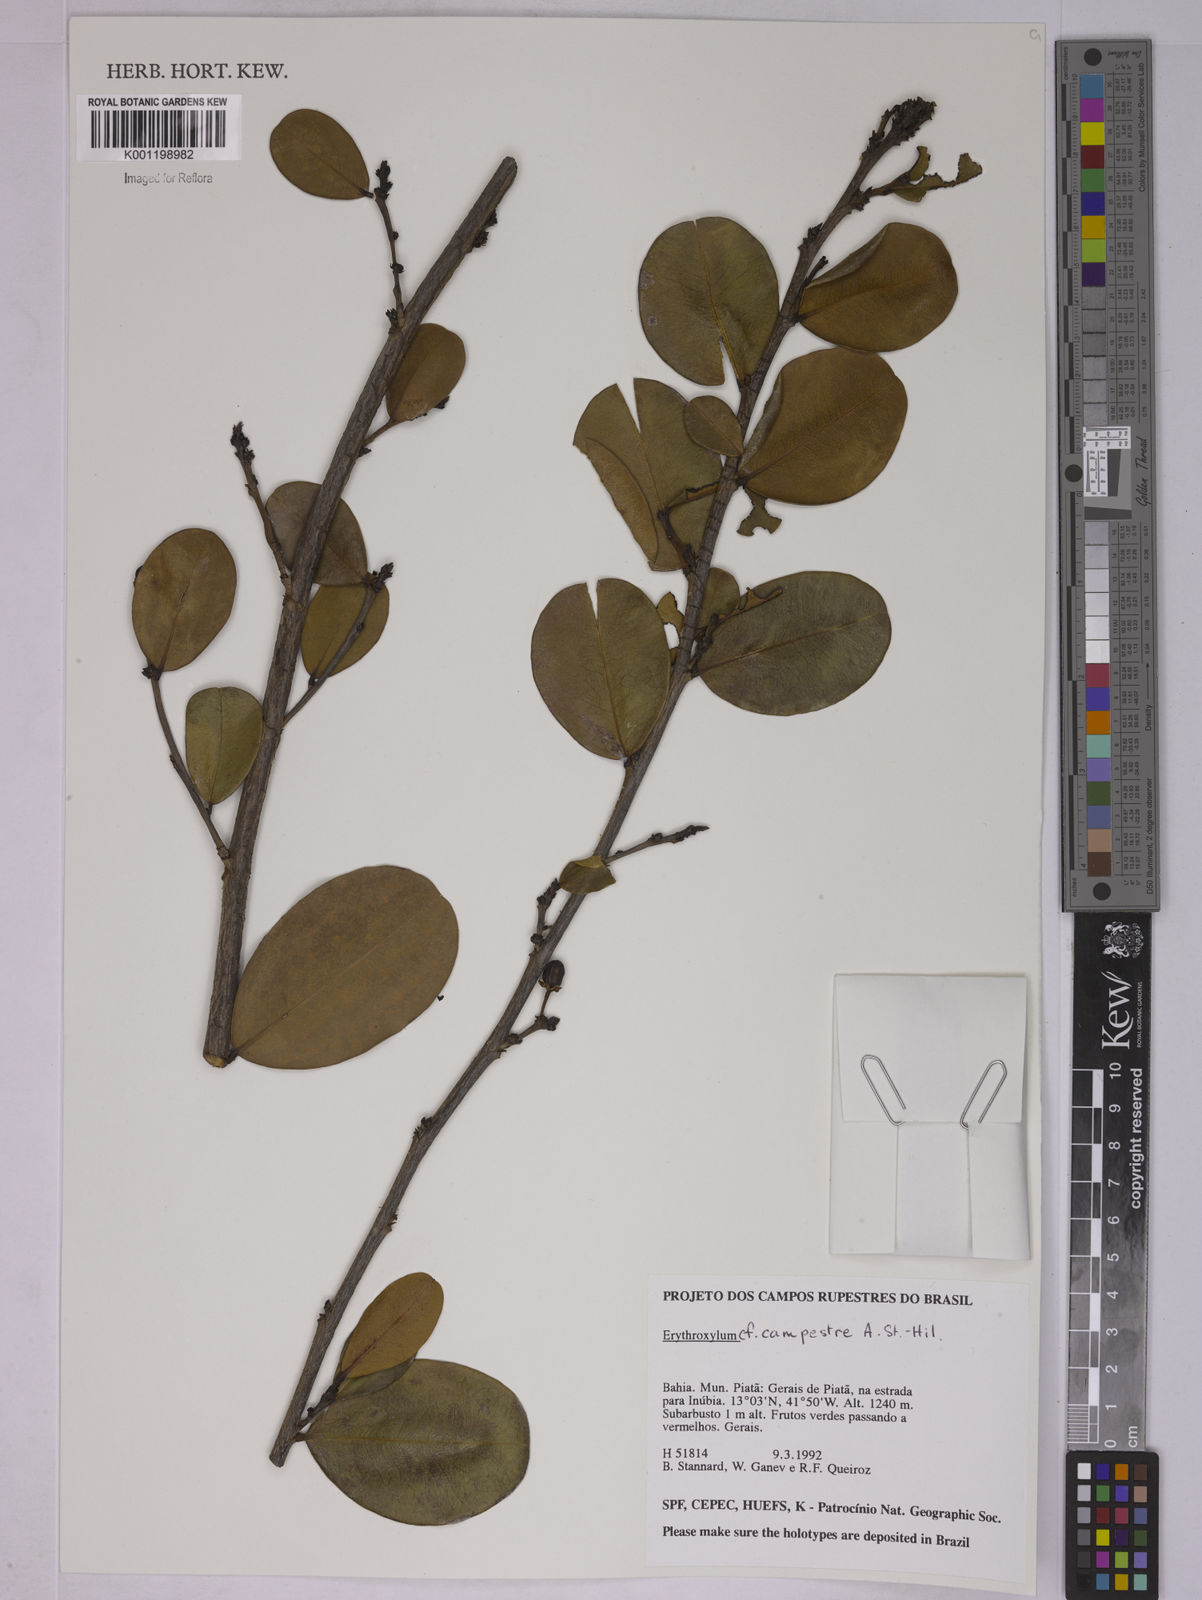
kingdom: Plantae
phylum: Tracheophyta
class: Magnoliopsida
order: Malpighiales
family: Erythroxylaceae
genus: Erythroxylum
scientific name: Erythroxylum campestre
